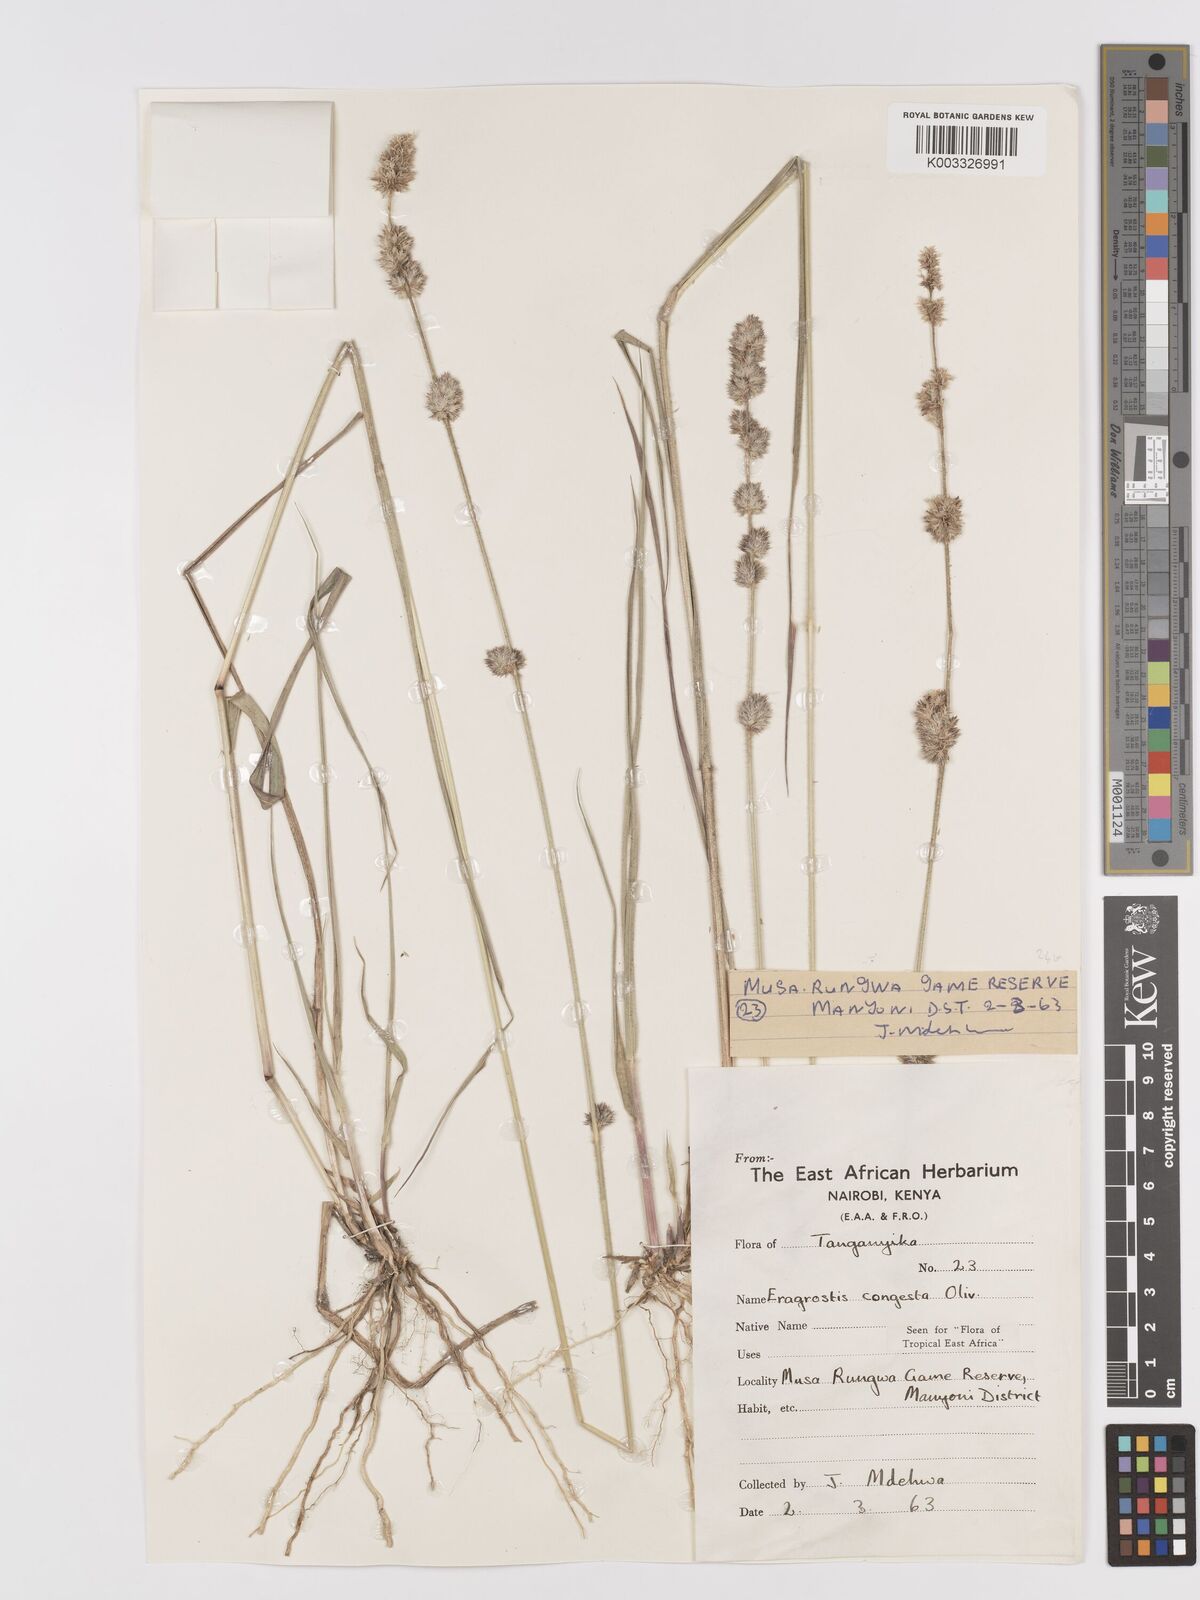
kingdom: Plantae
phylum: Tracheophyta
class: Liliopsida
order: Poales
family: Poaceae
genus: Eragrostis
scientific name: Eragrostis congesta
